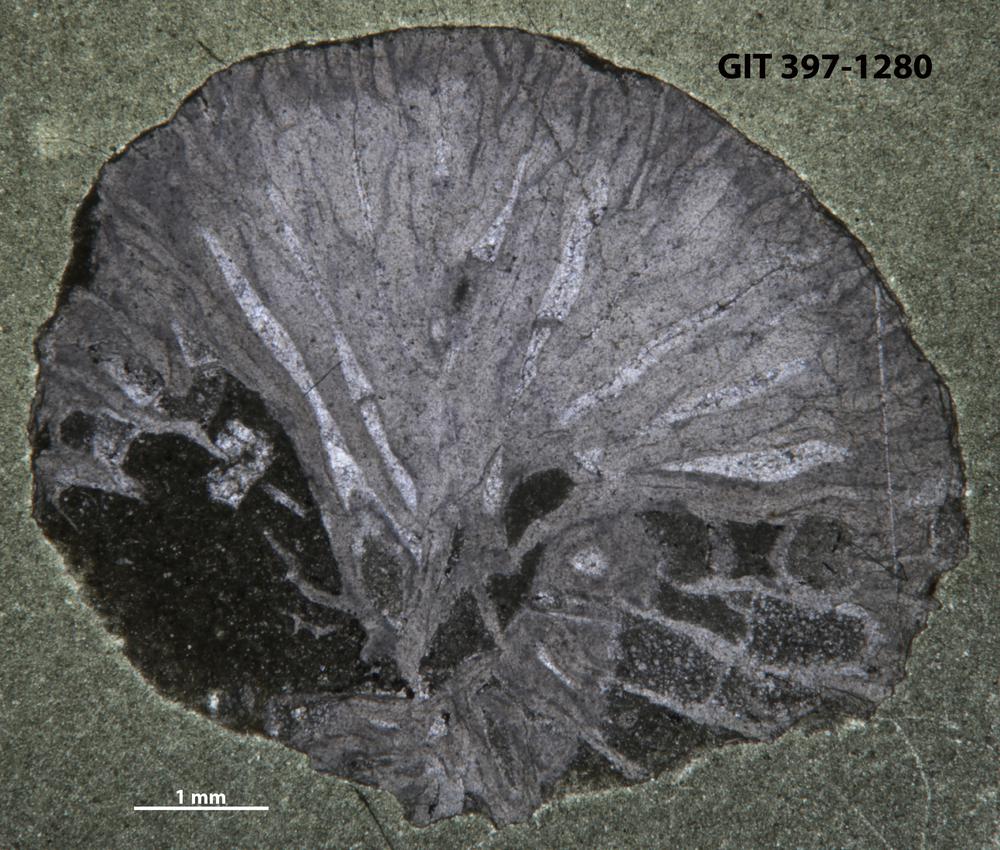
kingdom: Animalia
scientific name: Animalia
